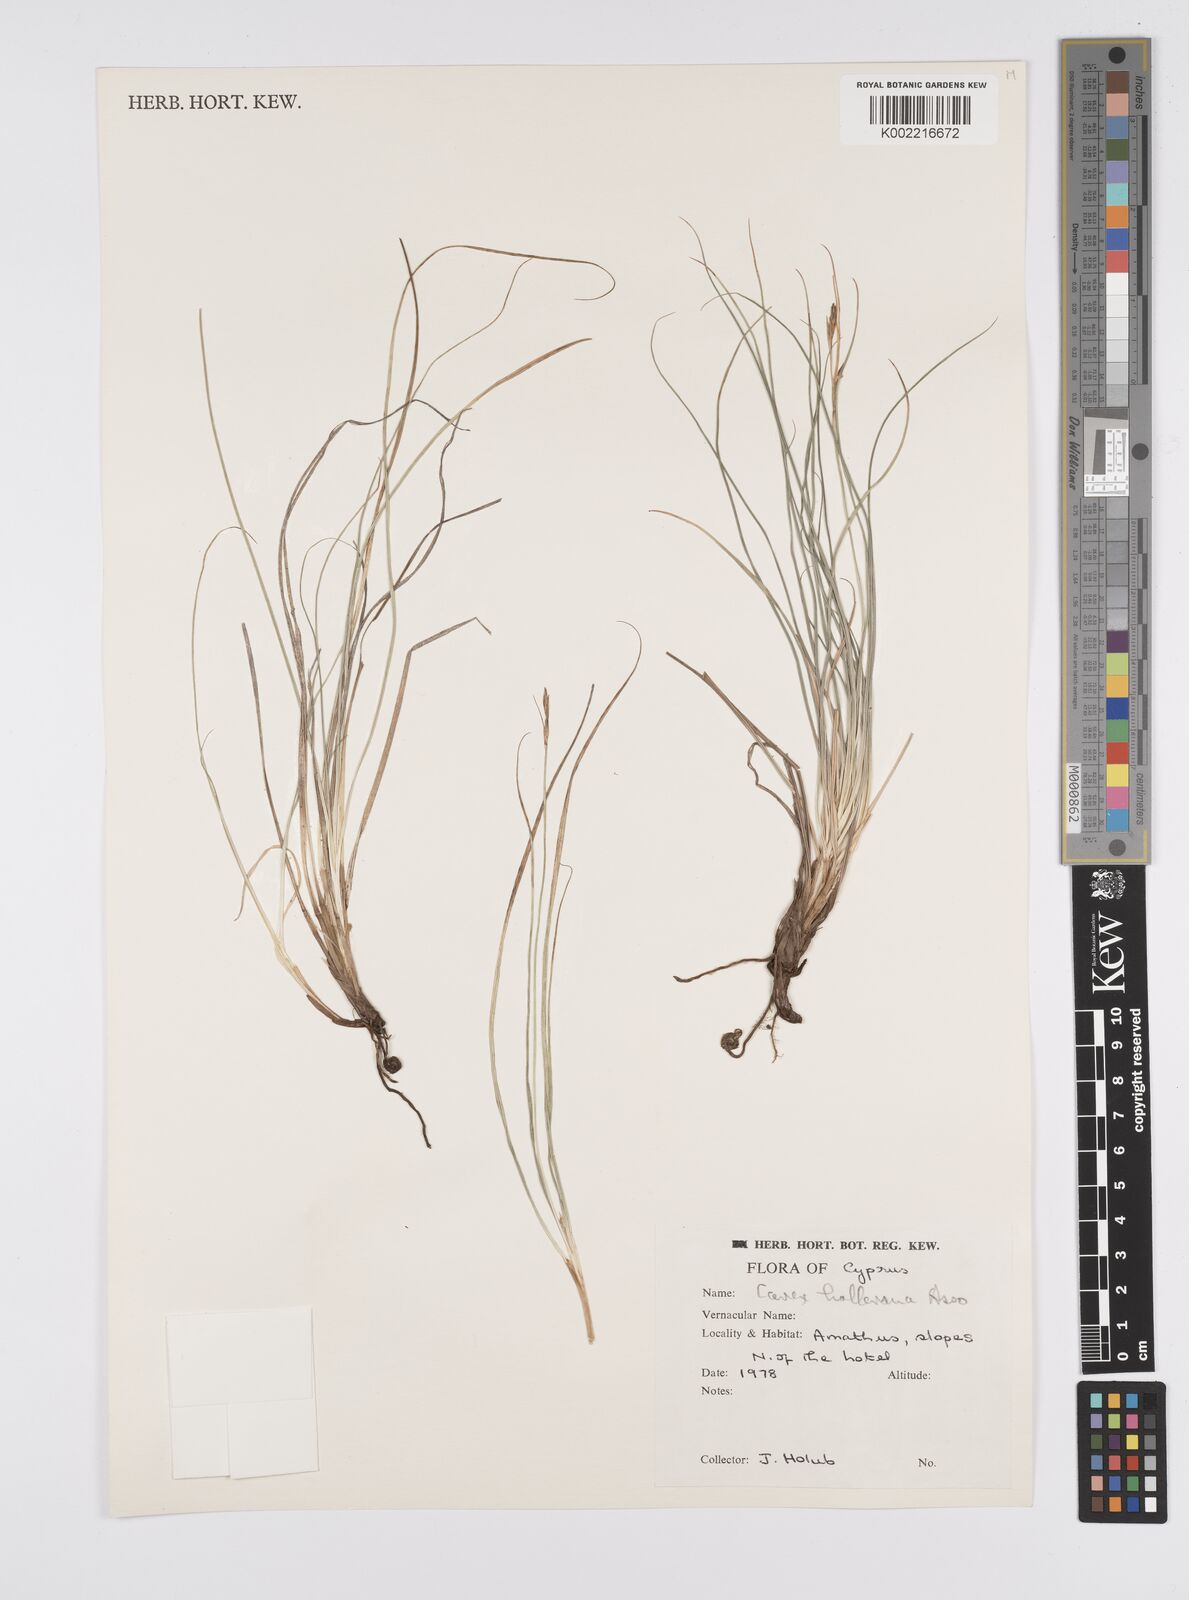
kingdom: Plantae
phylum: Tracheophyta
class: Liliopsida
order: Poales
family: Cyperaceae
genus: Carex
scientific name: Carex halleriana
